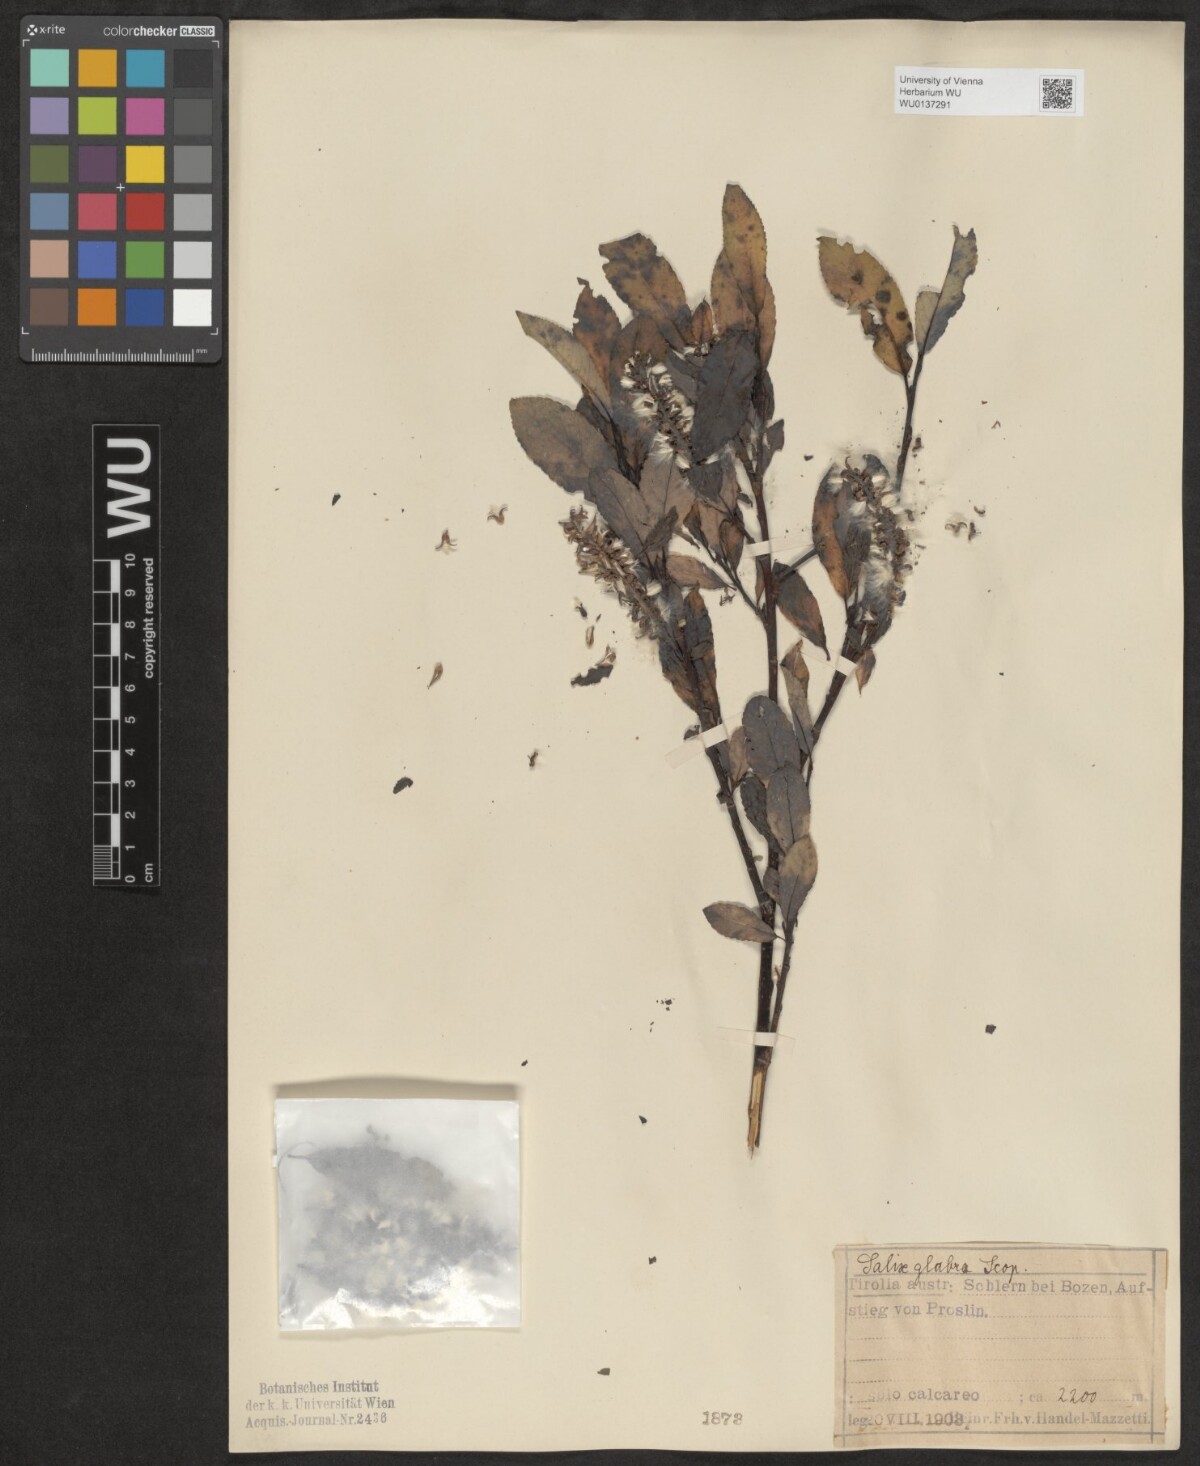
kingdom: Plantae
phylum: Tracheophyta
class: Magnoliopsida
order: Malpighiales
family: Salicaceae
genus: Salix
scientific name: Salix glabra
